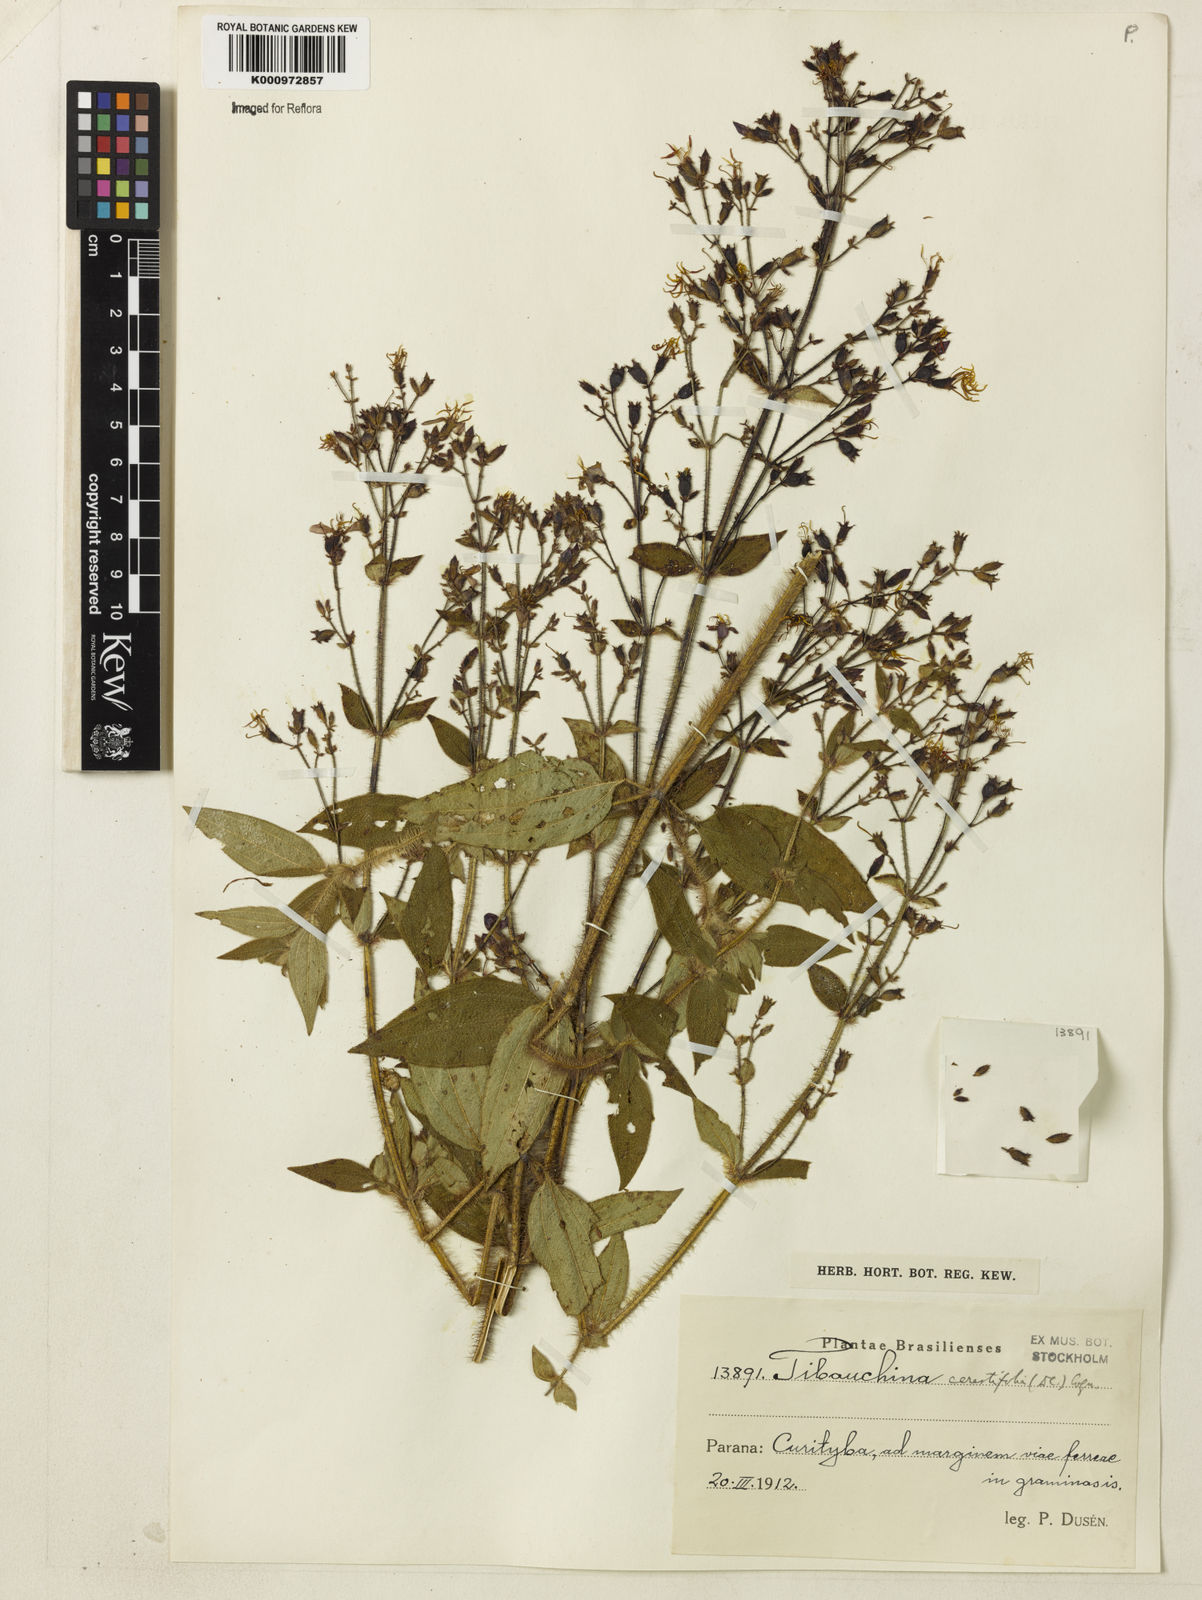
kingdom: Plantae
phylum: Tracheophyta
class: Magnoliopsida
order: Myrtales
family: Melastomataceae
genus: Chaetogastra
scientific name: Chaetogastra cerastifolia
